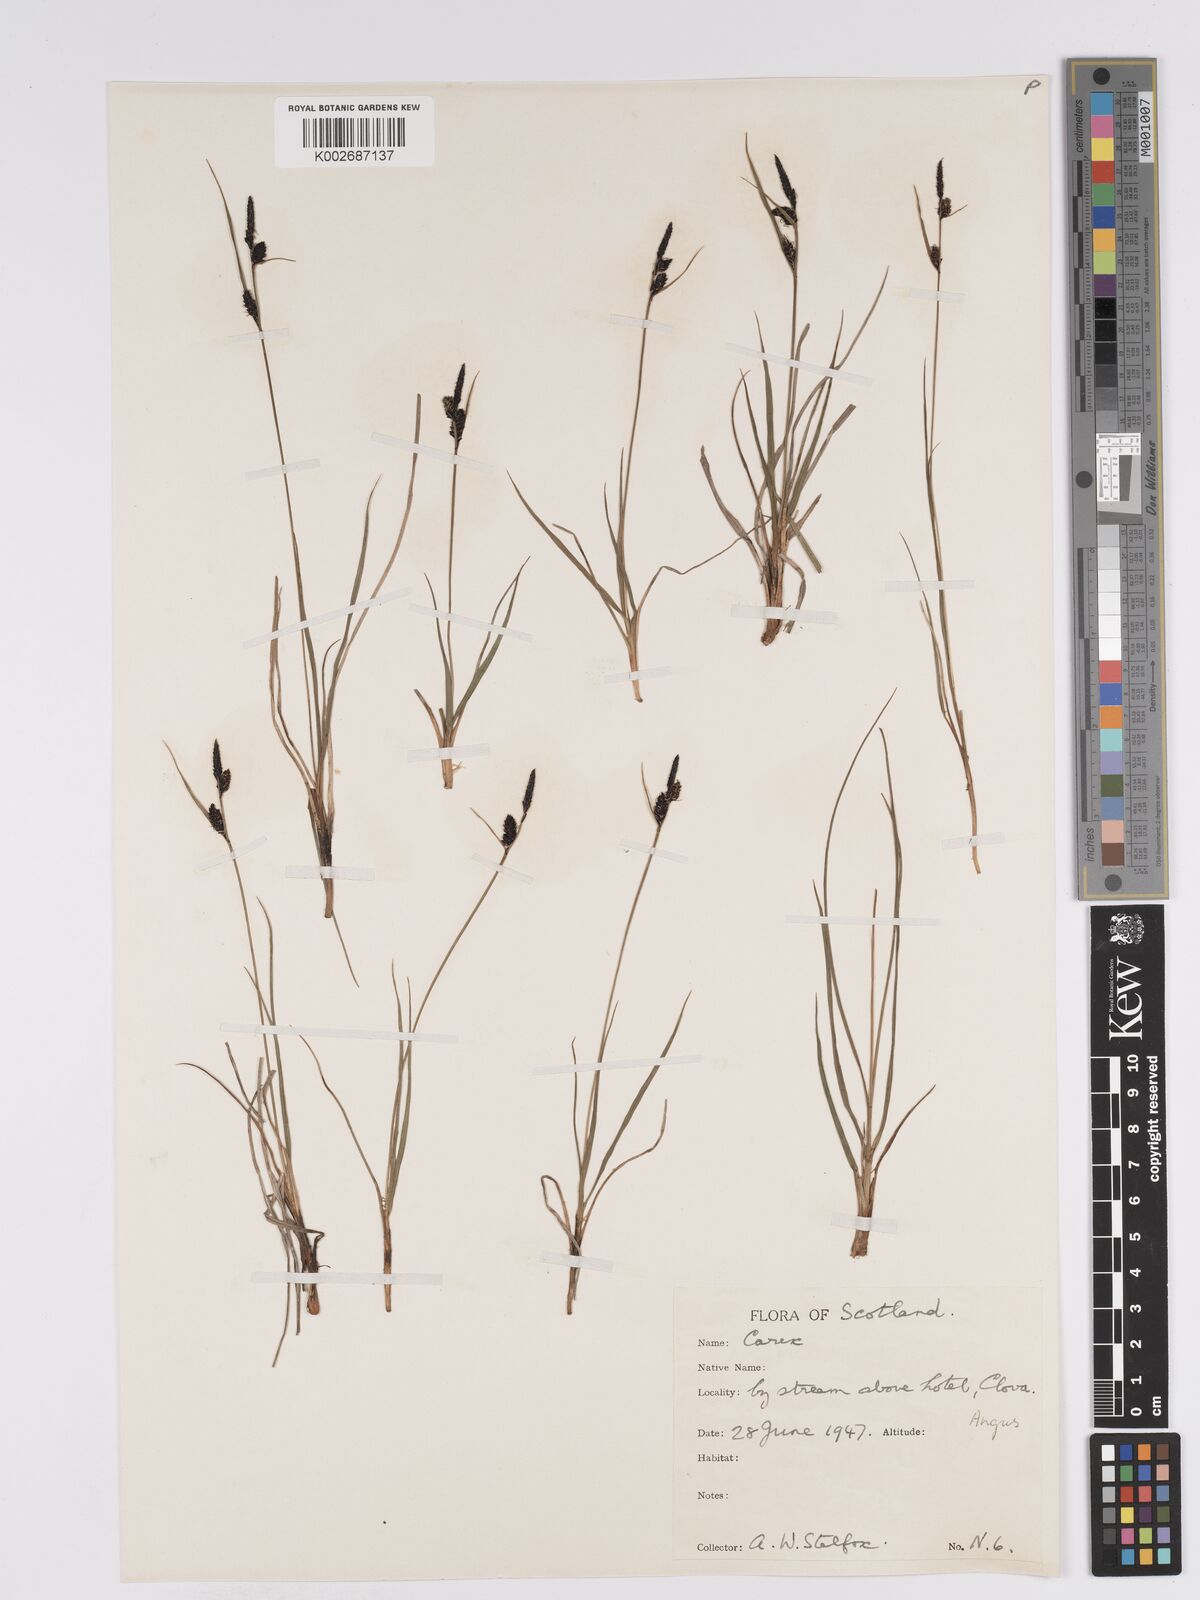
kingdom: Plantae
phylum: Tracheophyta
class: Liliopsida
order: Poales
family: Cyperaceae
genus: Carex
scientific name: Carex nigra
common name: Common sedge
